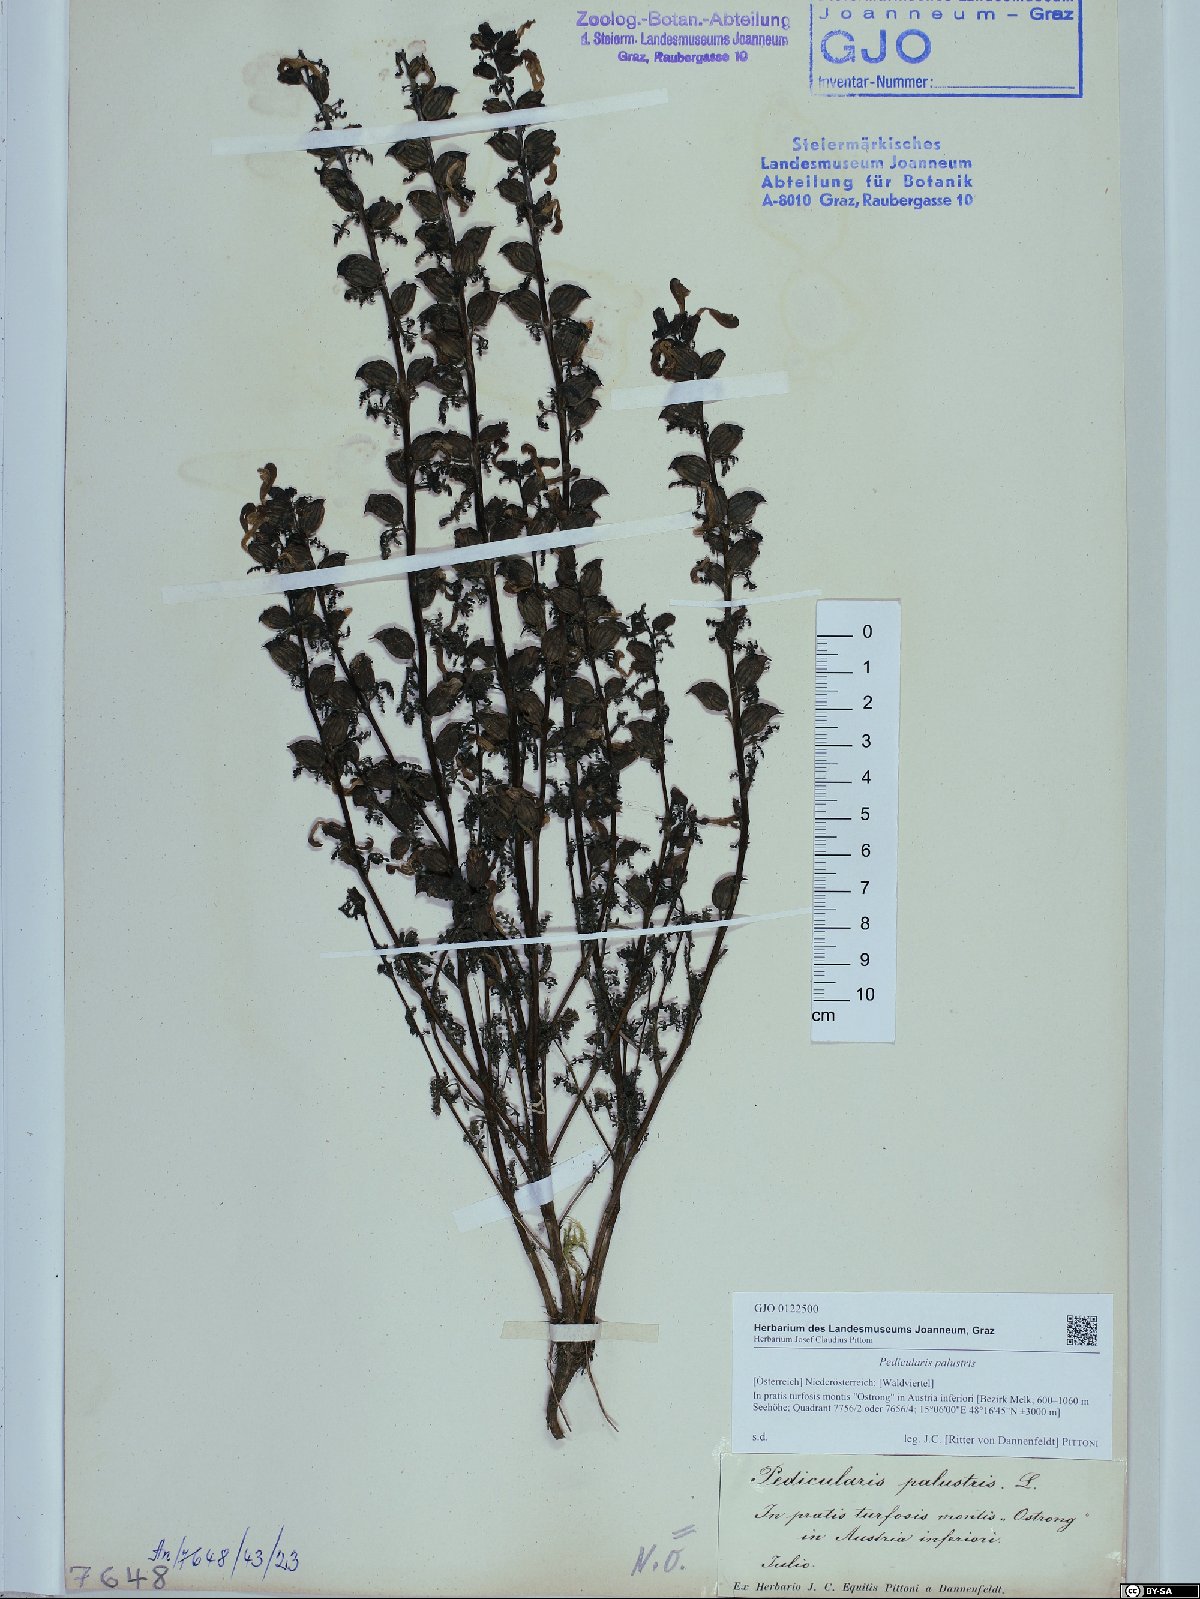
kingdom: Plantae
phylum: Tracheophyta
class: Magnoliopsida
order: Lamiales
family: Orobanchaceae
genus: Pedicularis
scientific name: Pedicularis palustris
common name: Marsh lousewort
